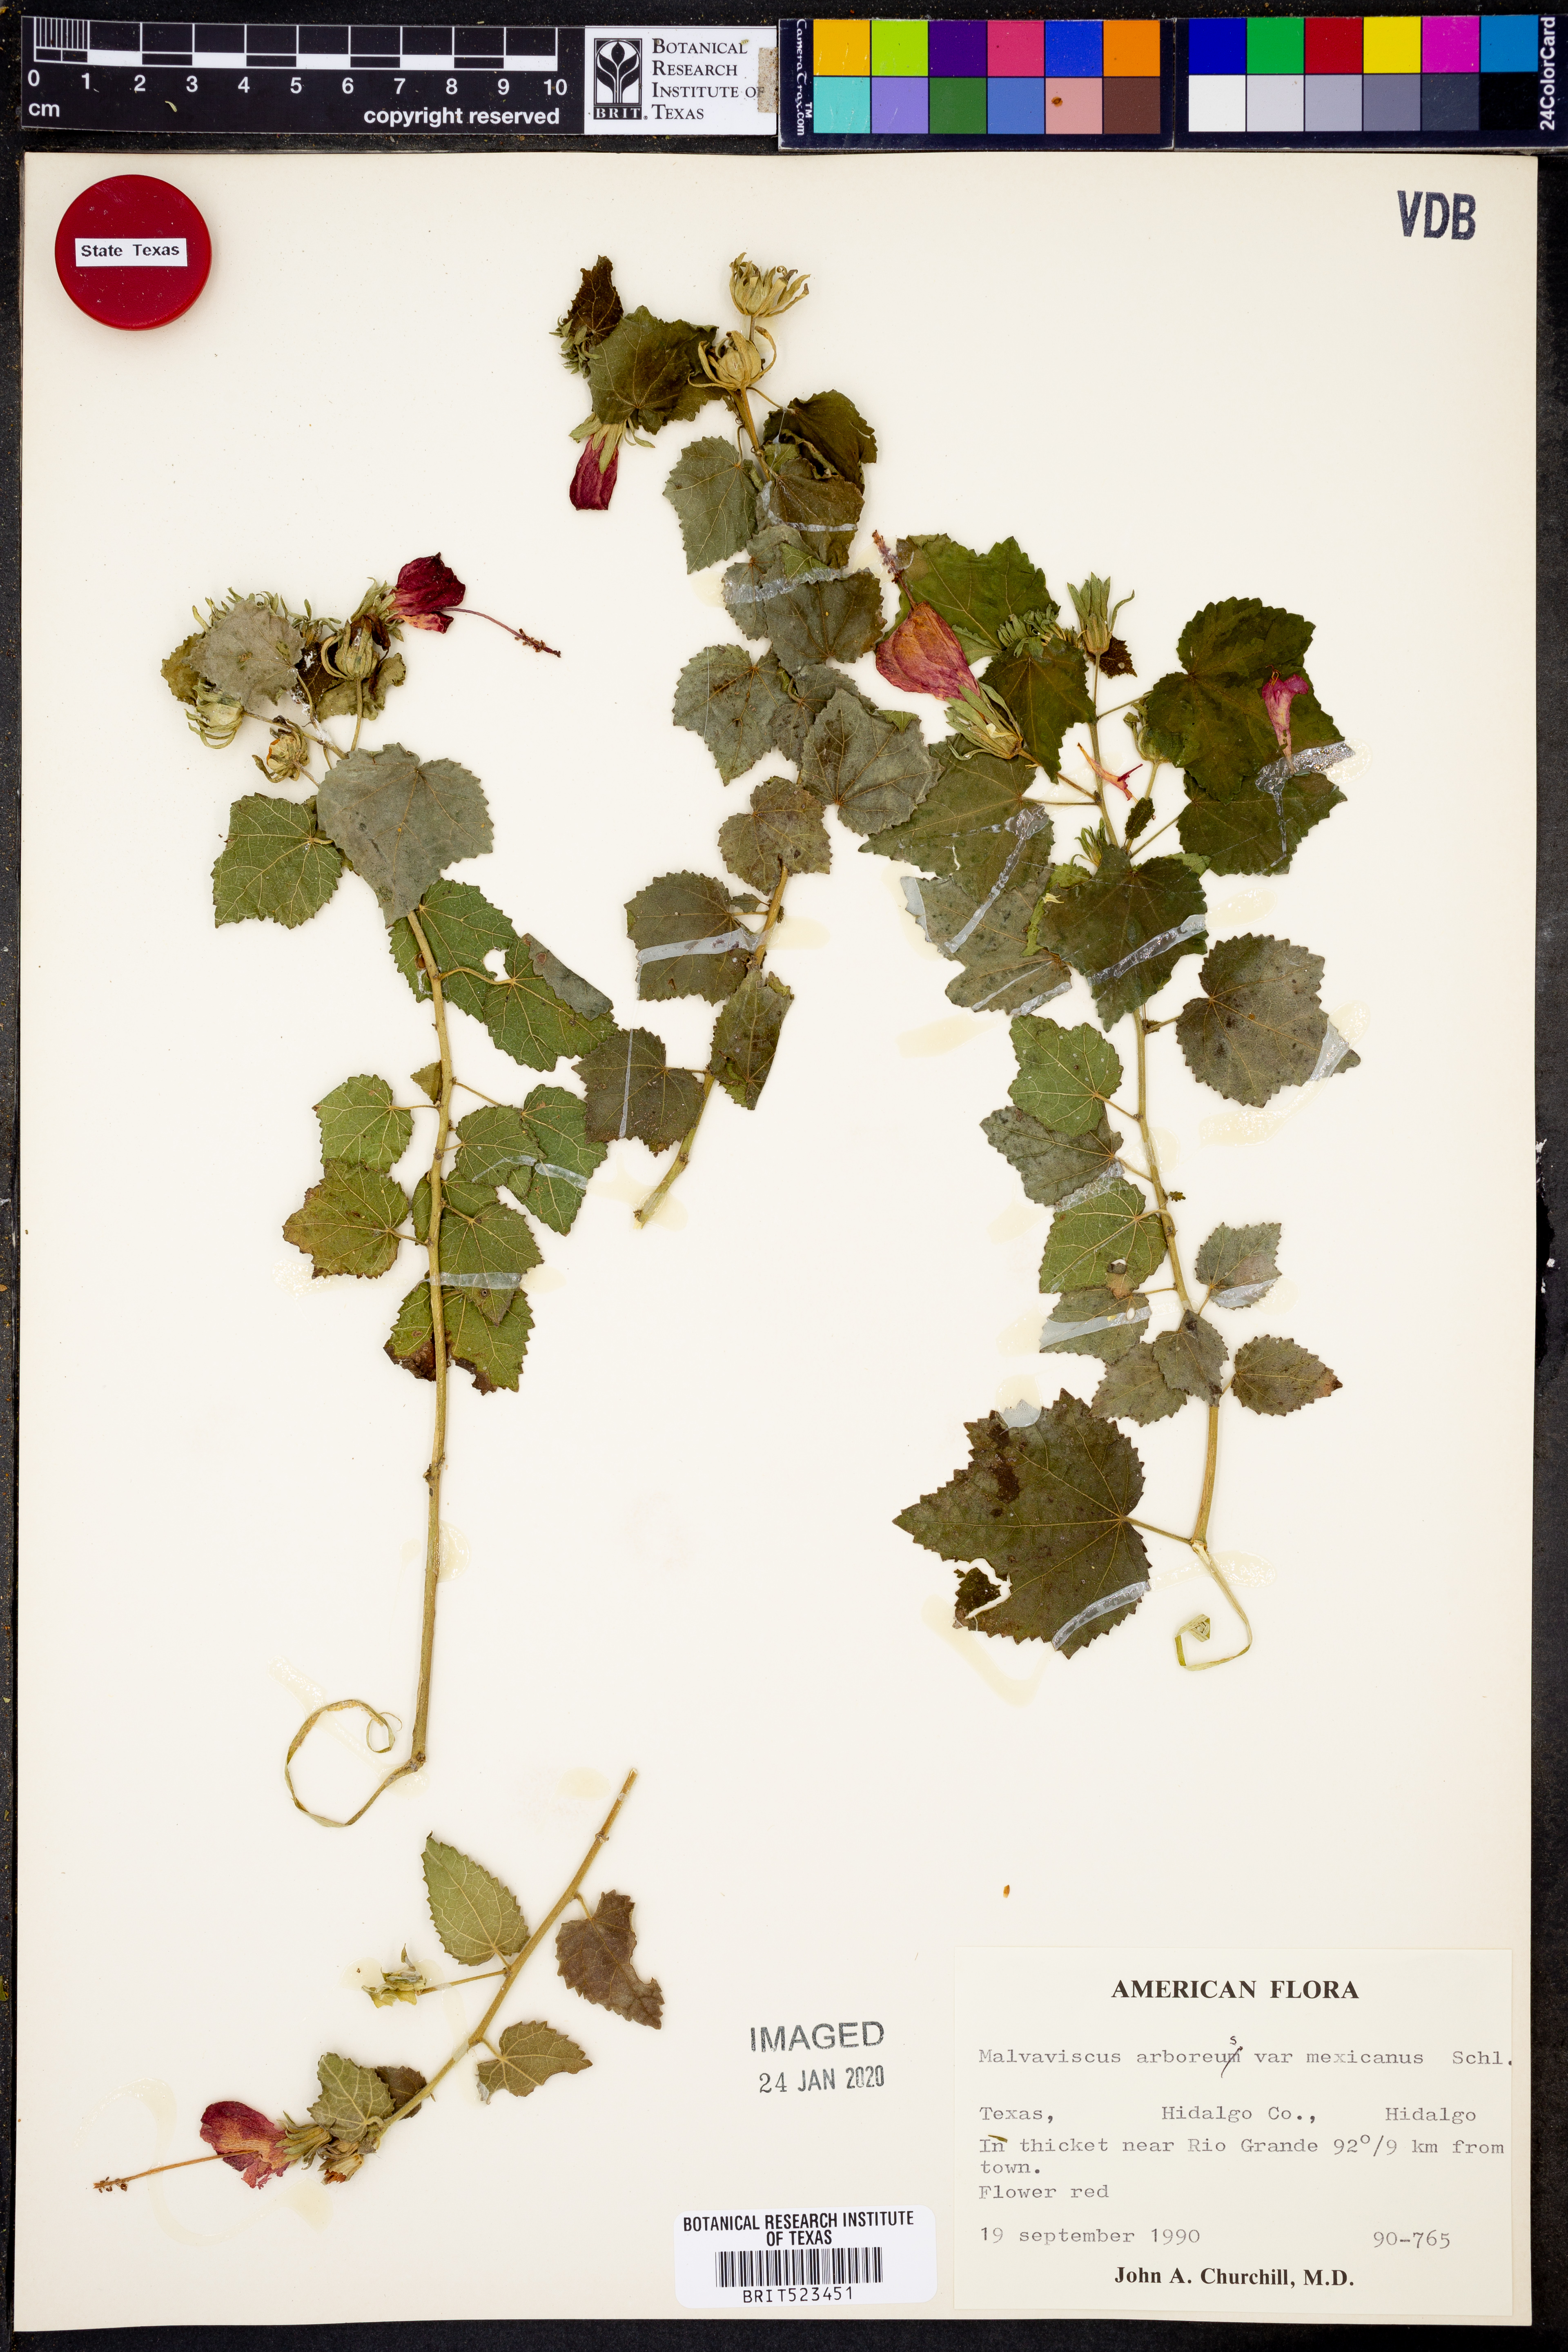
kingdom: Plantae
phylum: Tracheophyta
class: Magnoliopsida
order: Malvales
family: Malvaceae
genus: Malvaviscus
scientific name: Malvaviscus arboreus
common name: Wax mallow
